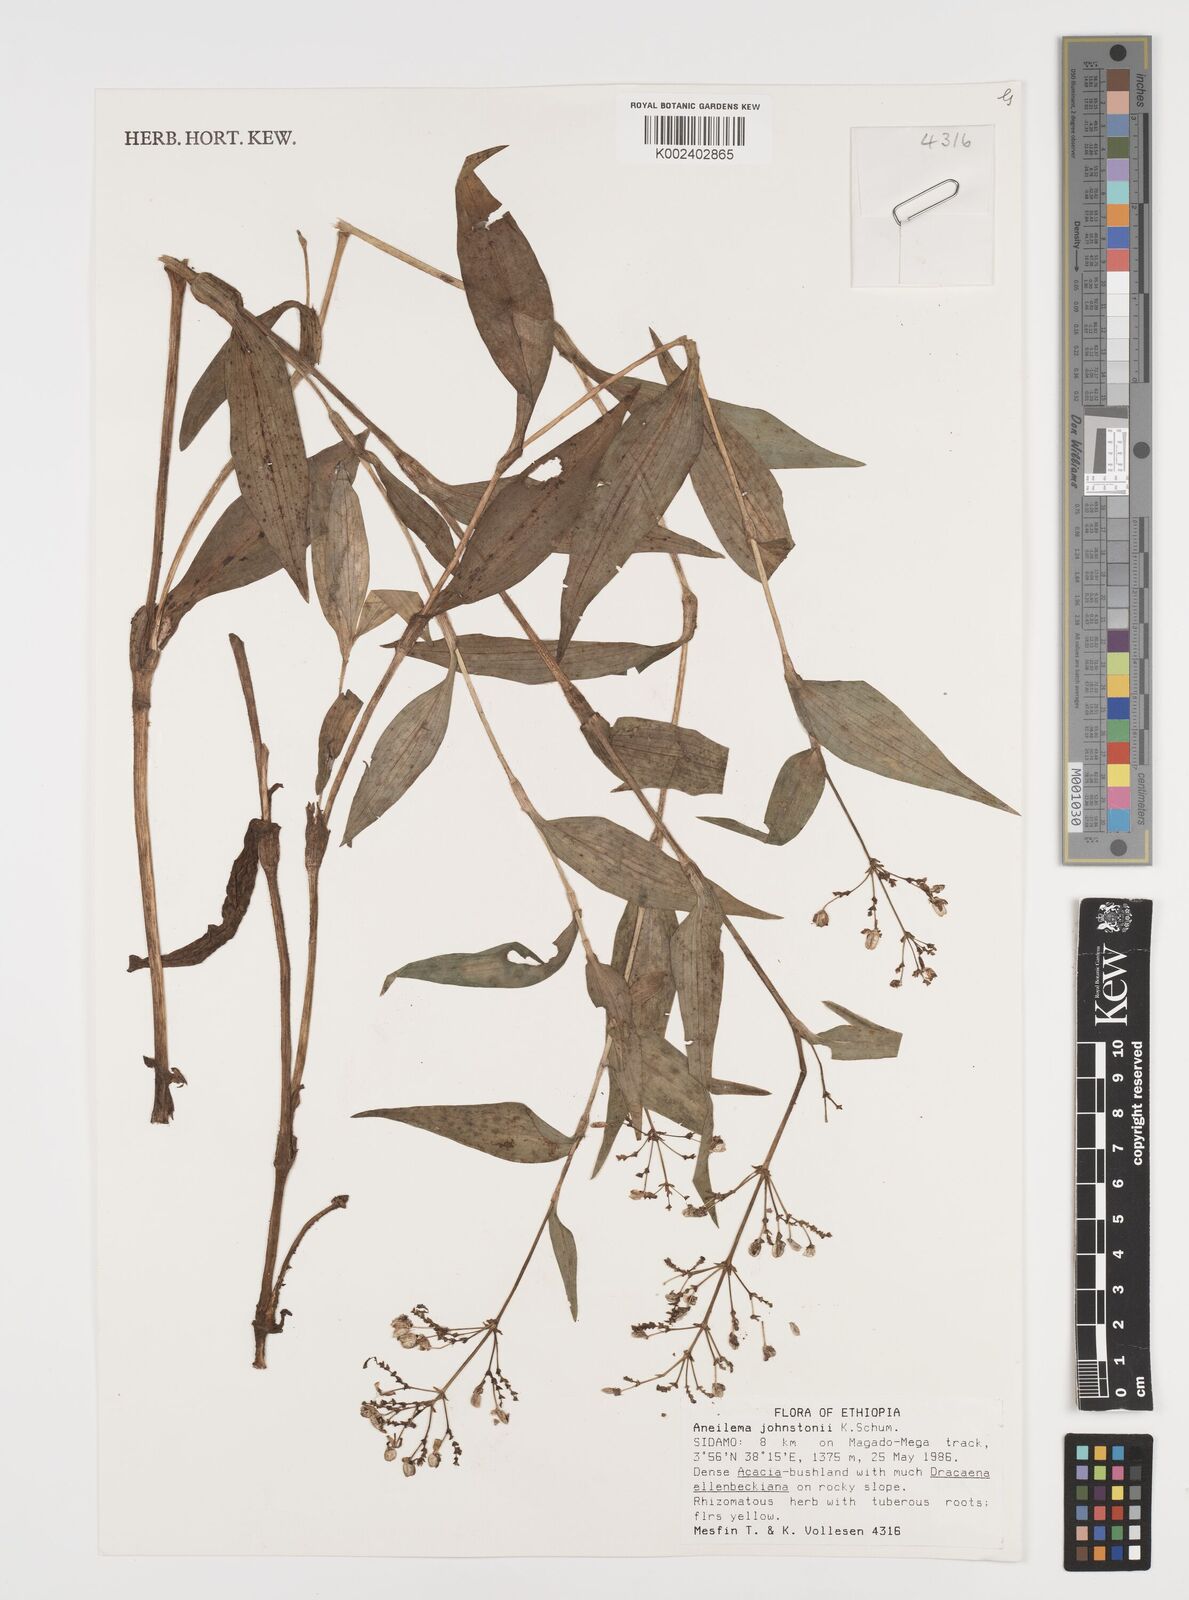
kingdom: Plantae
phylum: Tracheophyta
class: Liliopsida
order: Commelinales
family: Commelinaceae
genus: Aneilema
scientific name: Aneilema johnstonii
